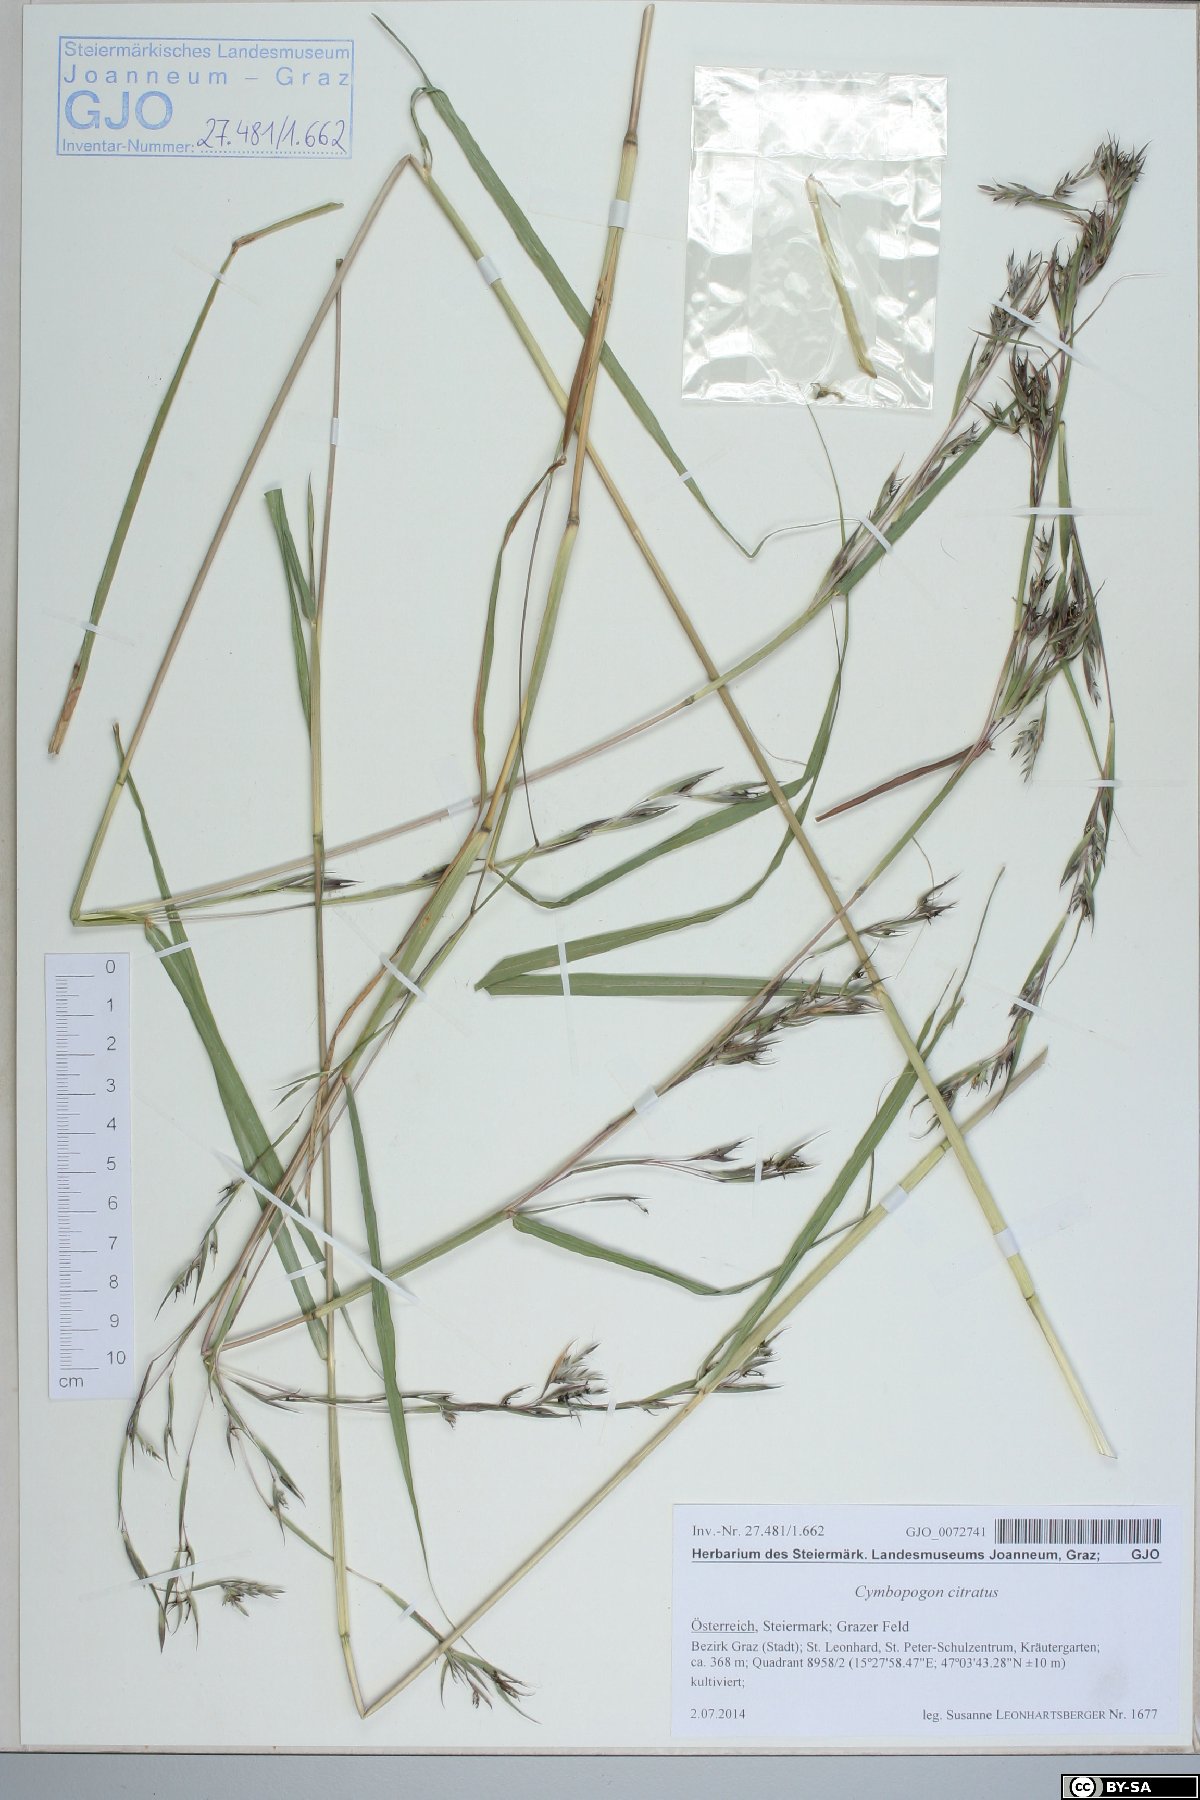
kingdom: Plantae
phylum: Tracheophyta
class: Liliopsida
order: Poales
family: Poaceae
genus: Cymbopogon
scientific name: Cymbopogon citratus
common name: Lemon grass
